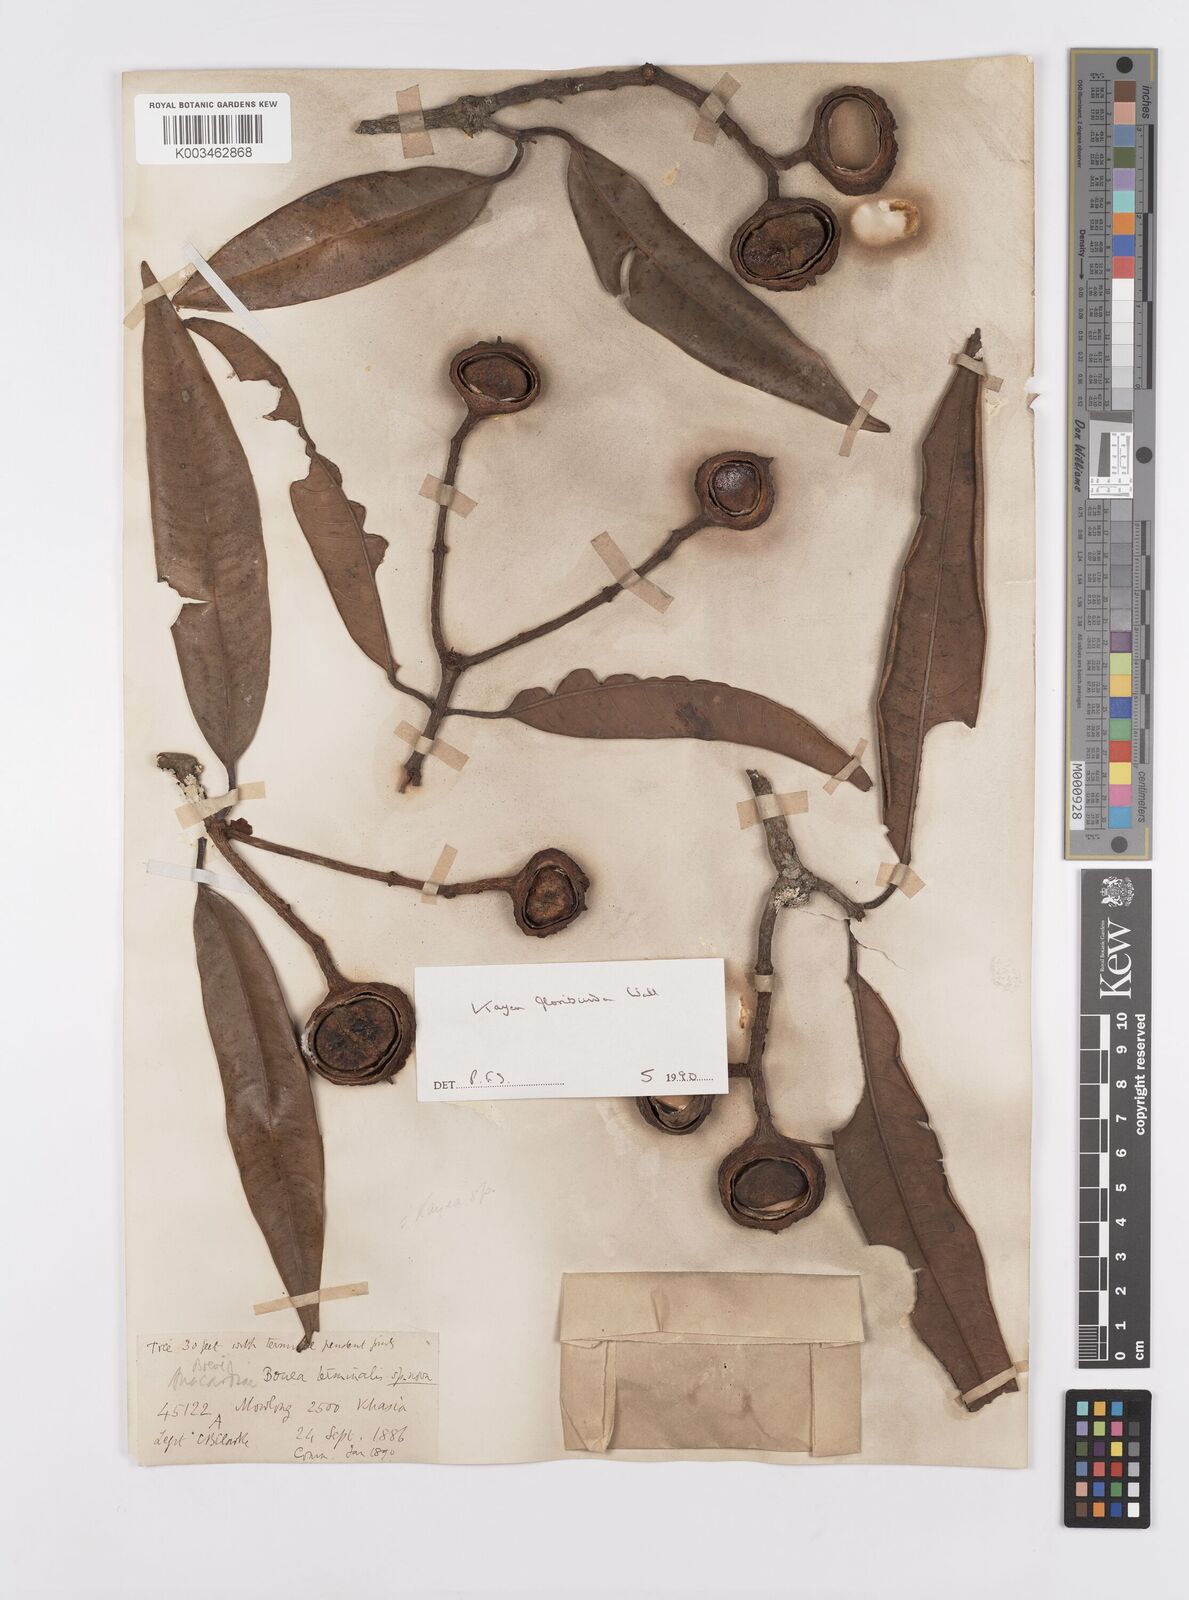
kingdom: Plantae
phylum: Tracheophyta
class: Magnoliopsida
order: Malpighiales
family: Calophyllaceae
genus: Kayea
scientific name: Kayea floribunda
